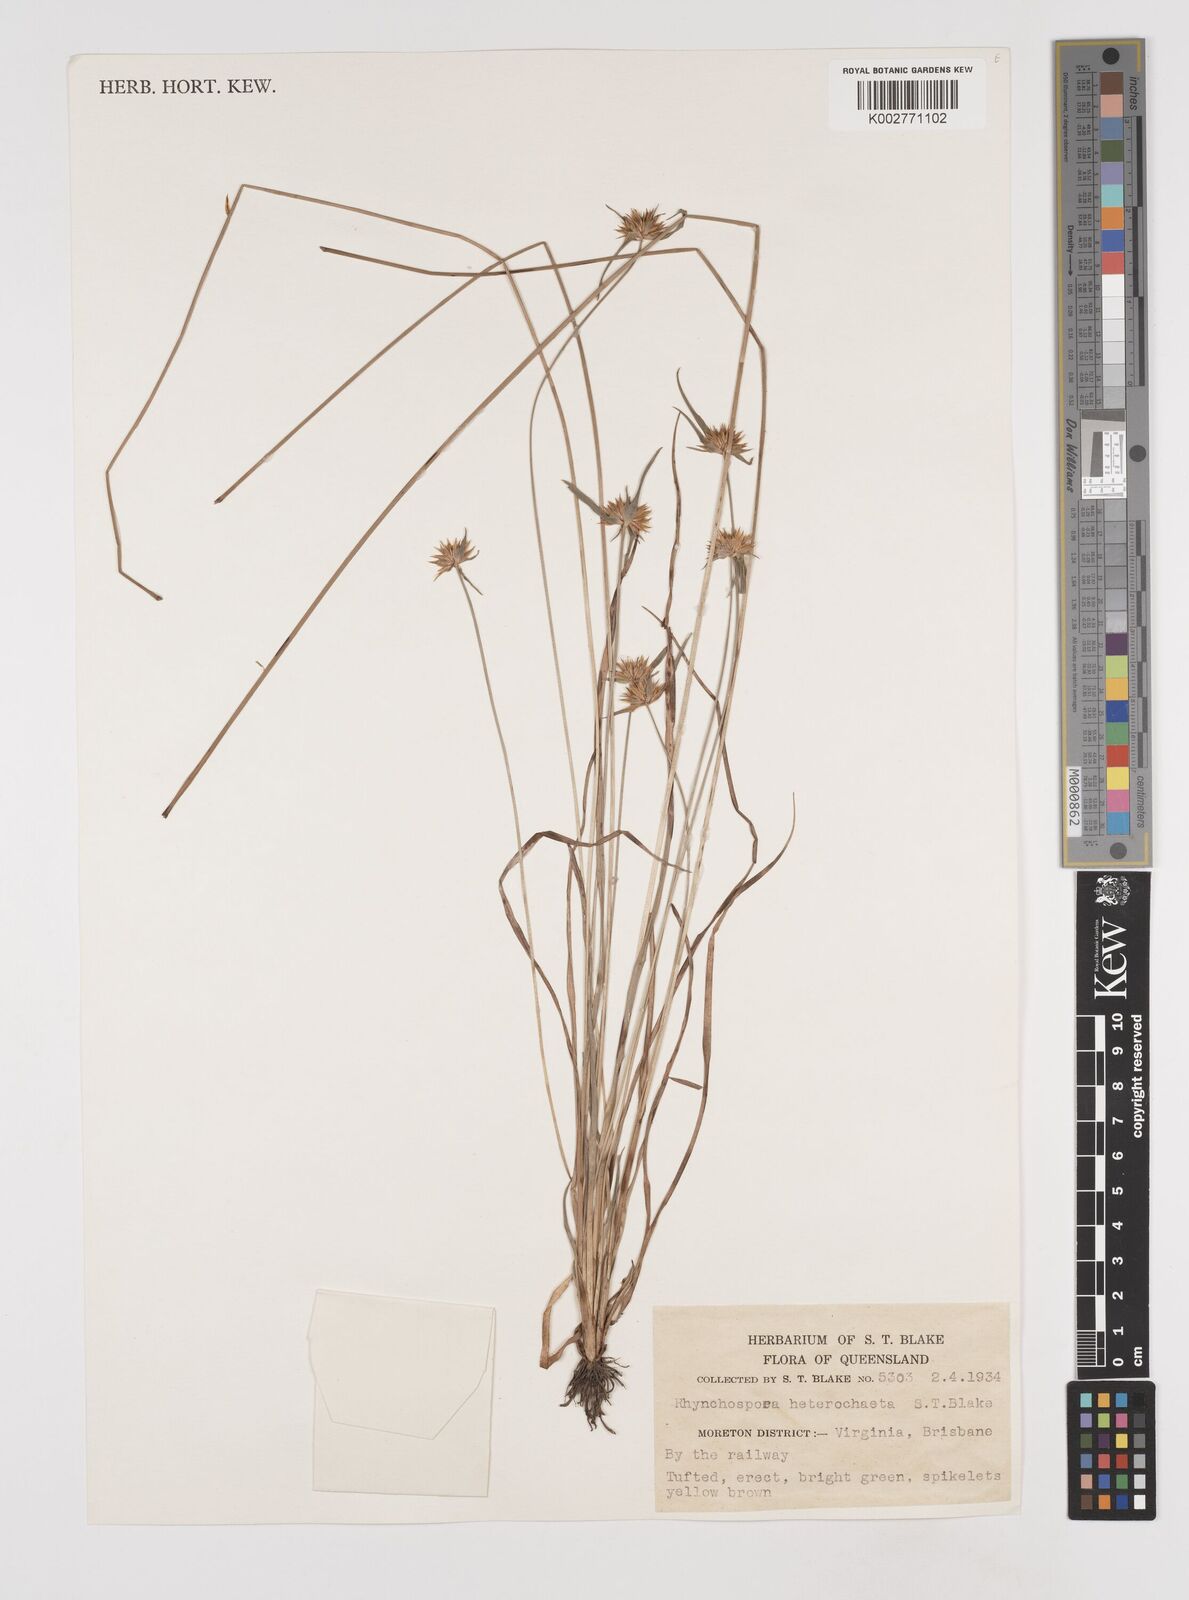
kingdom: Plantae
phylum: Tracheophyta
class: Liliopsida
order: Poales
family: Cyperaceae
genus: Rhynchospora
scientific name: Rhynchospora heterochaeta
